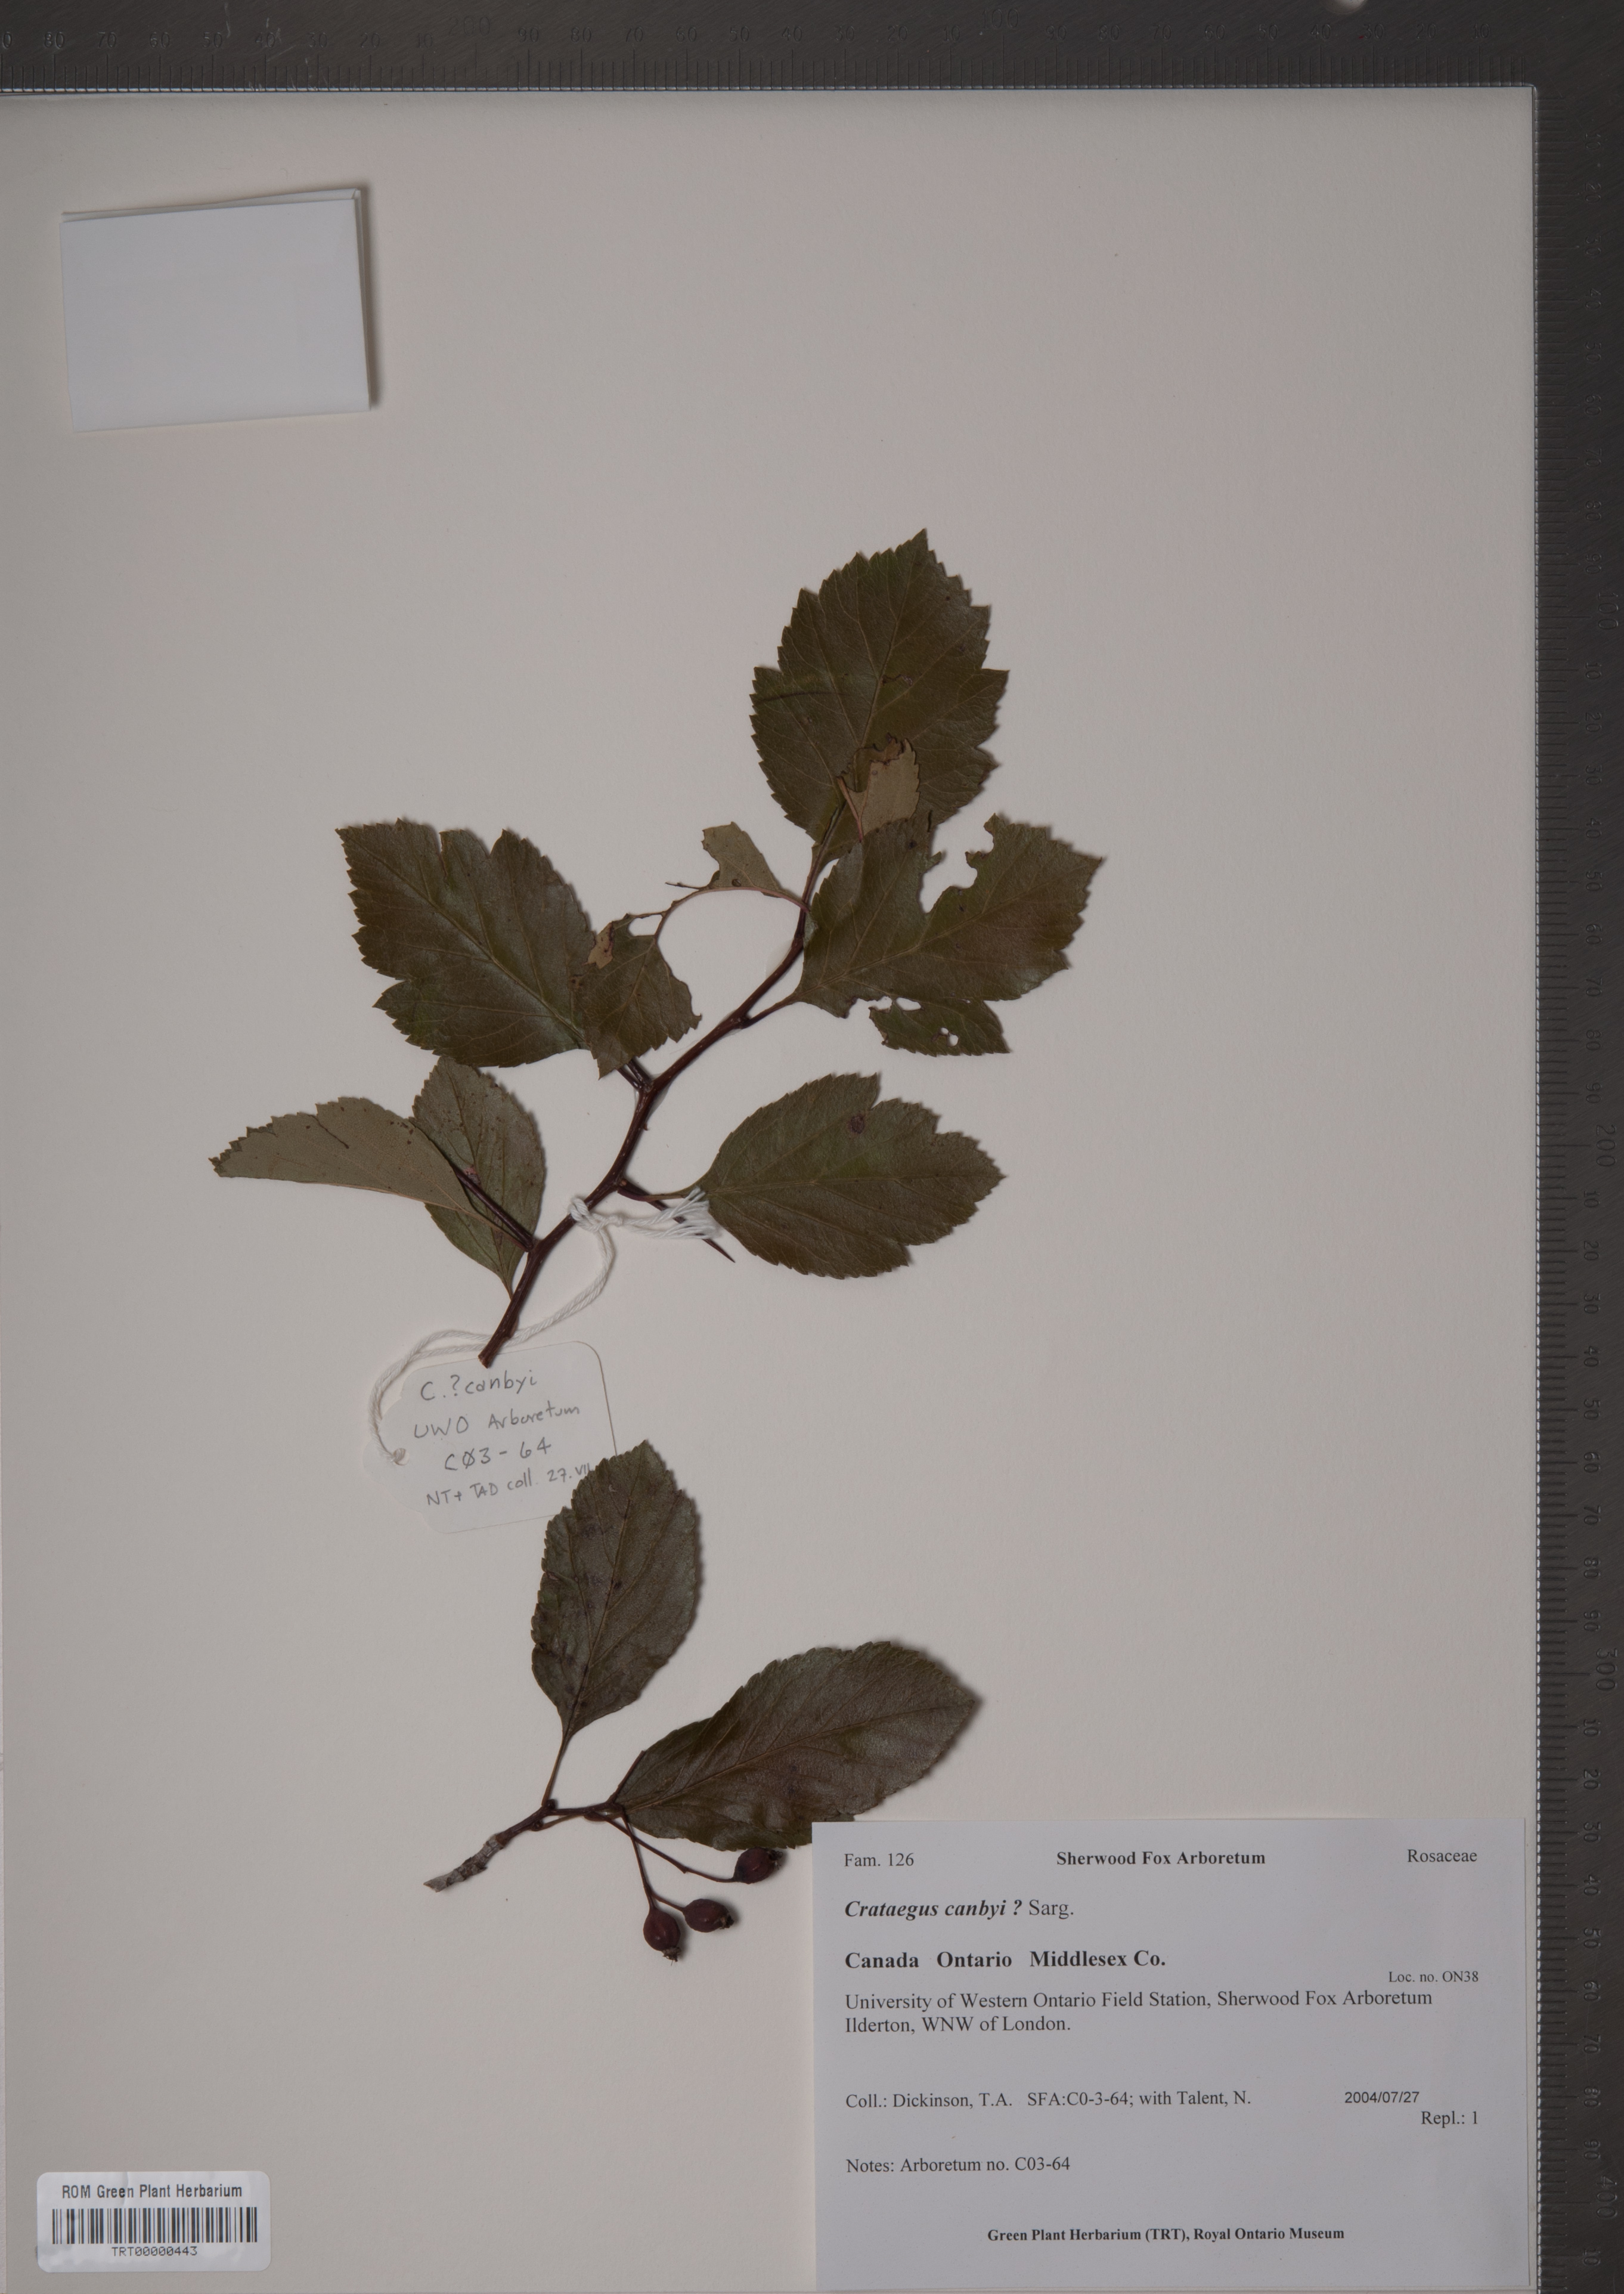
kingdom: Plantae
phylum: Tracheophyta
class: Magnoliopsida
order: Rosales
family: Rosaceae
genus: Crataegus
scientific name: Crataegus crus-galli
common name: Cockspurthorn
